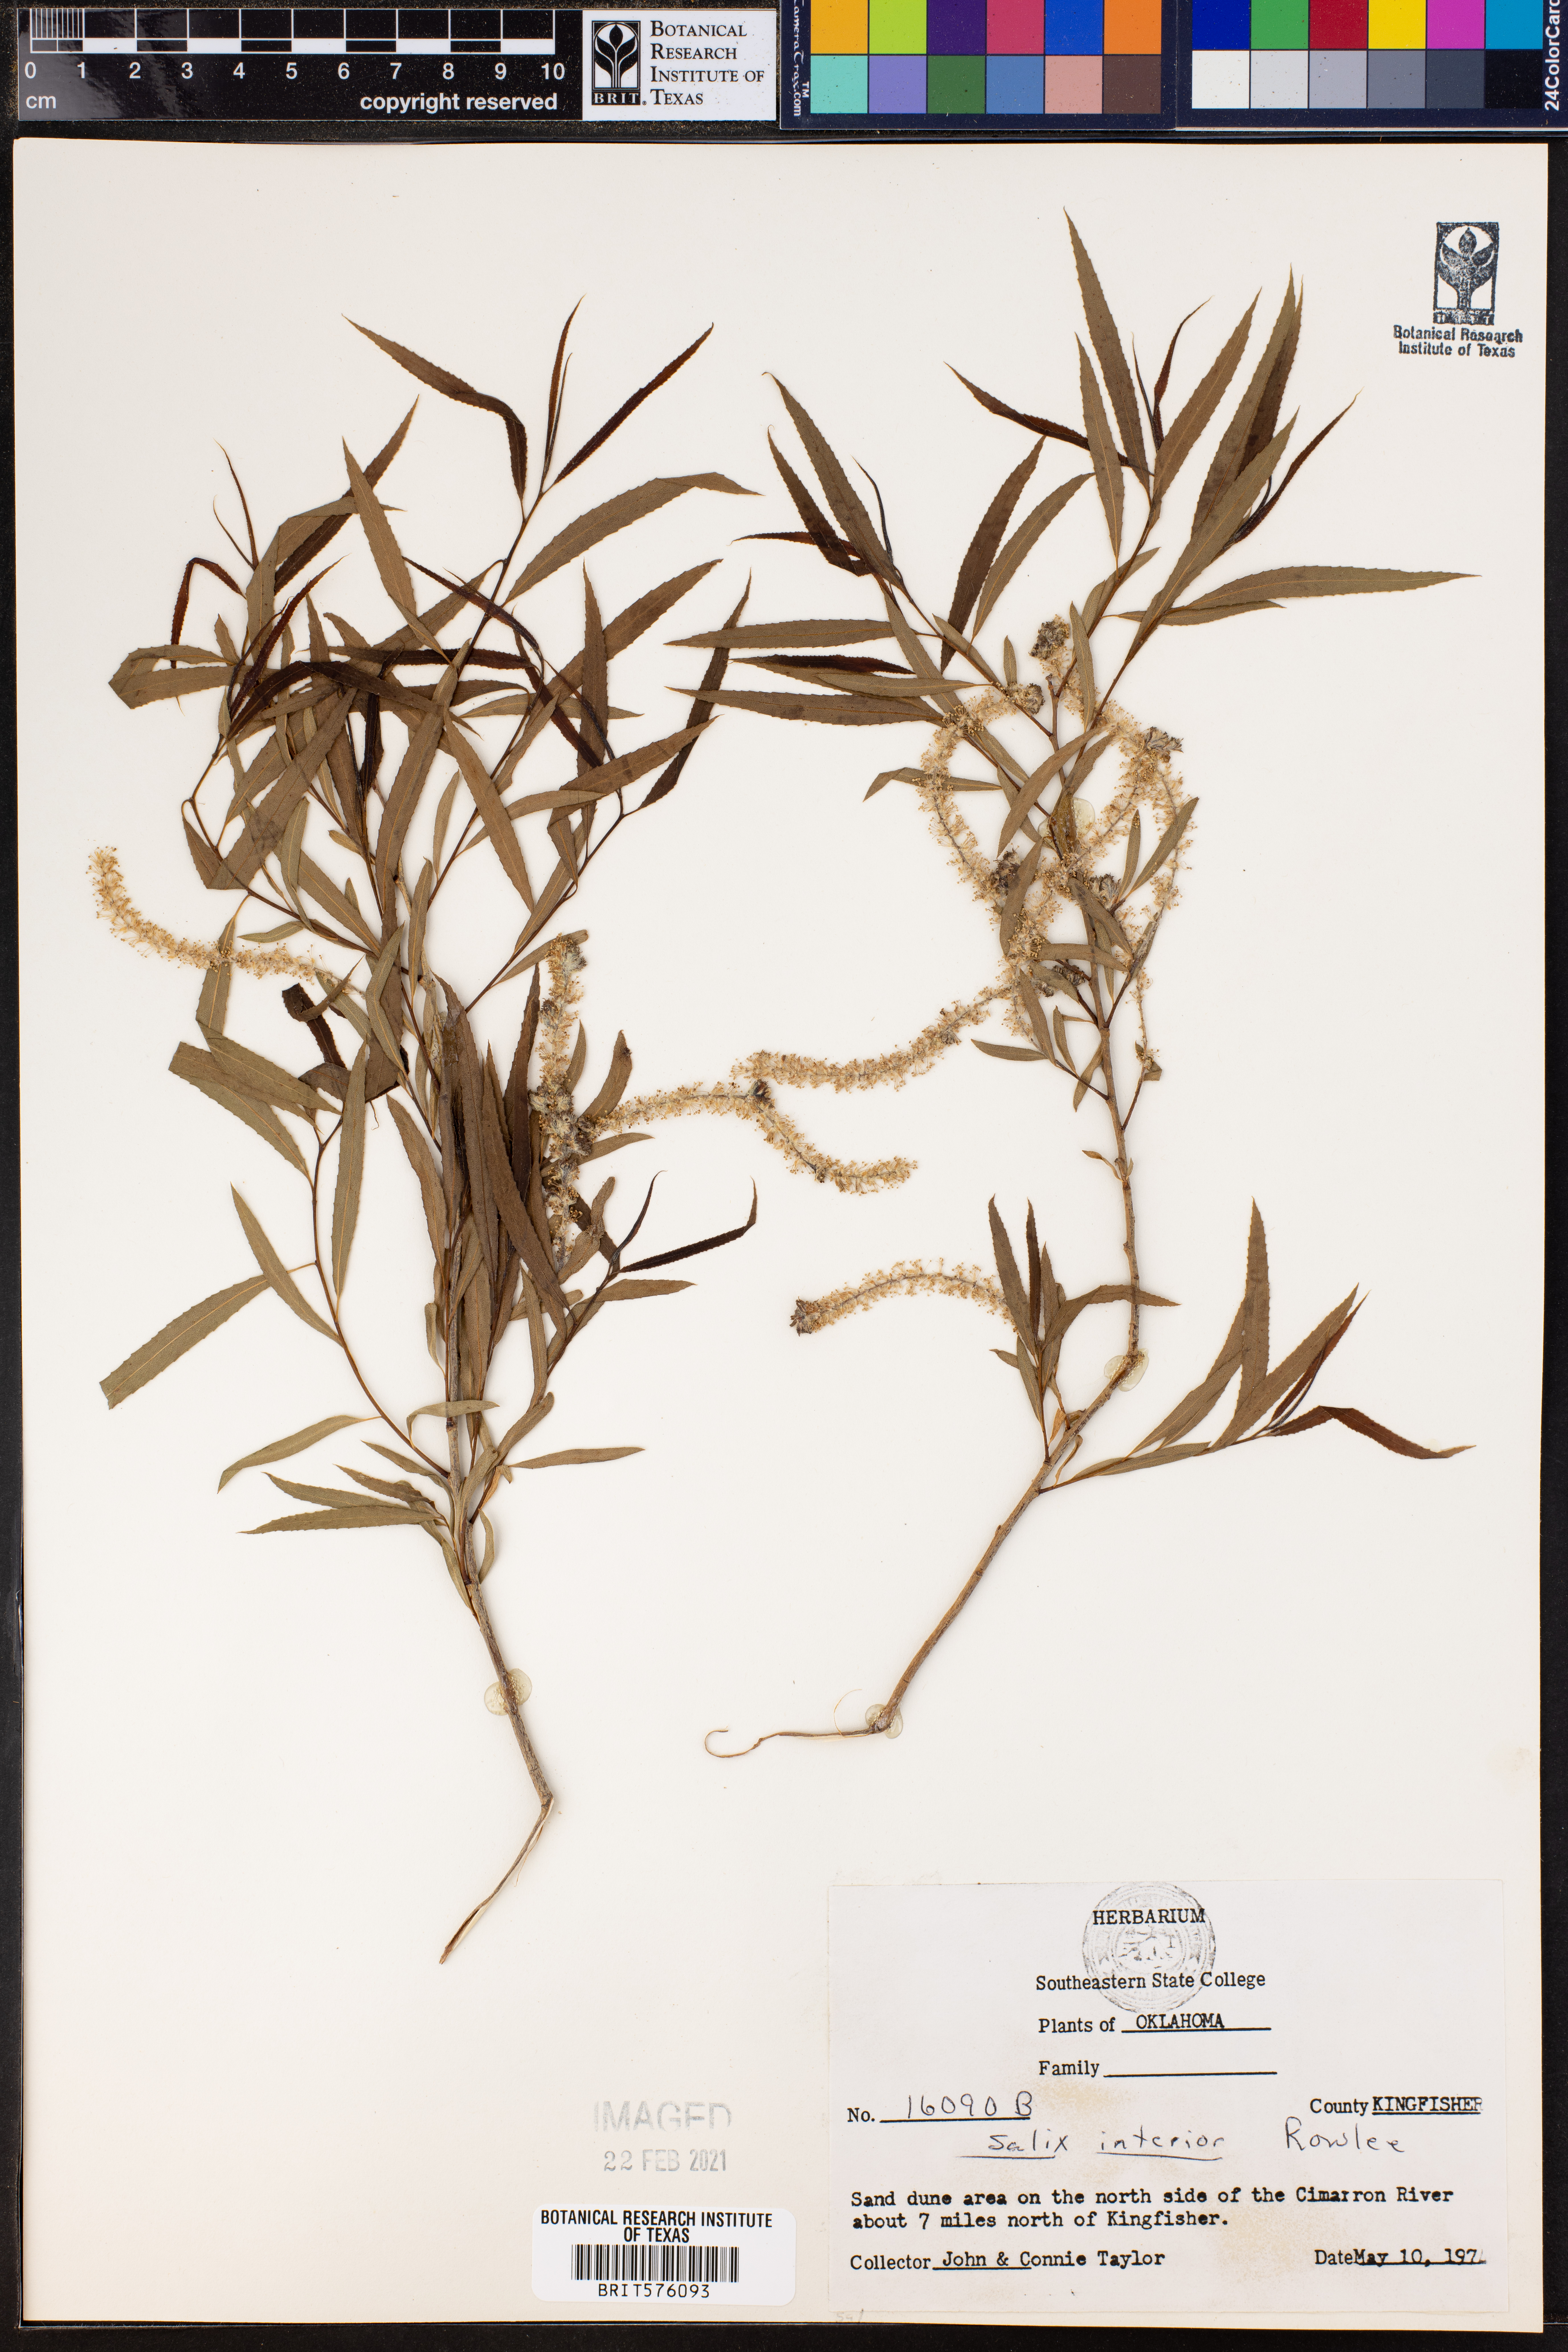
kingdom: Plantae
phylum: Tracheophyta
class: Magnoliopsida
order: Malpighiales
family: Salicaceae
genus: Salix
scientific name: Salix interior
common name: Sandbar willow
